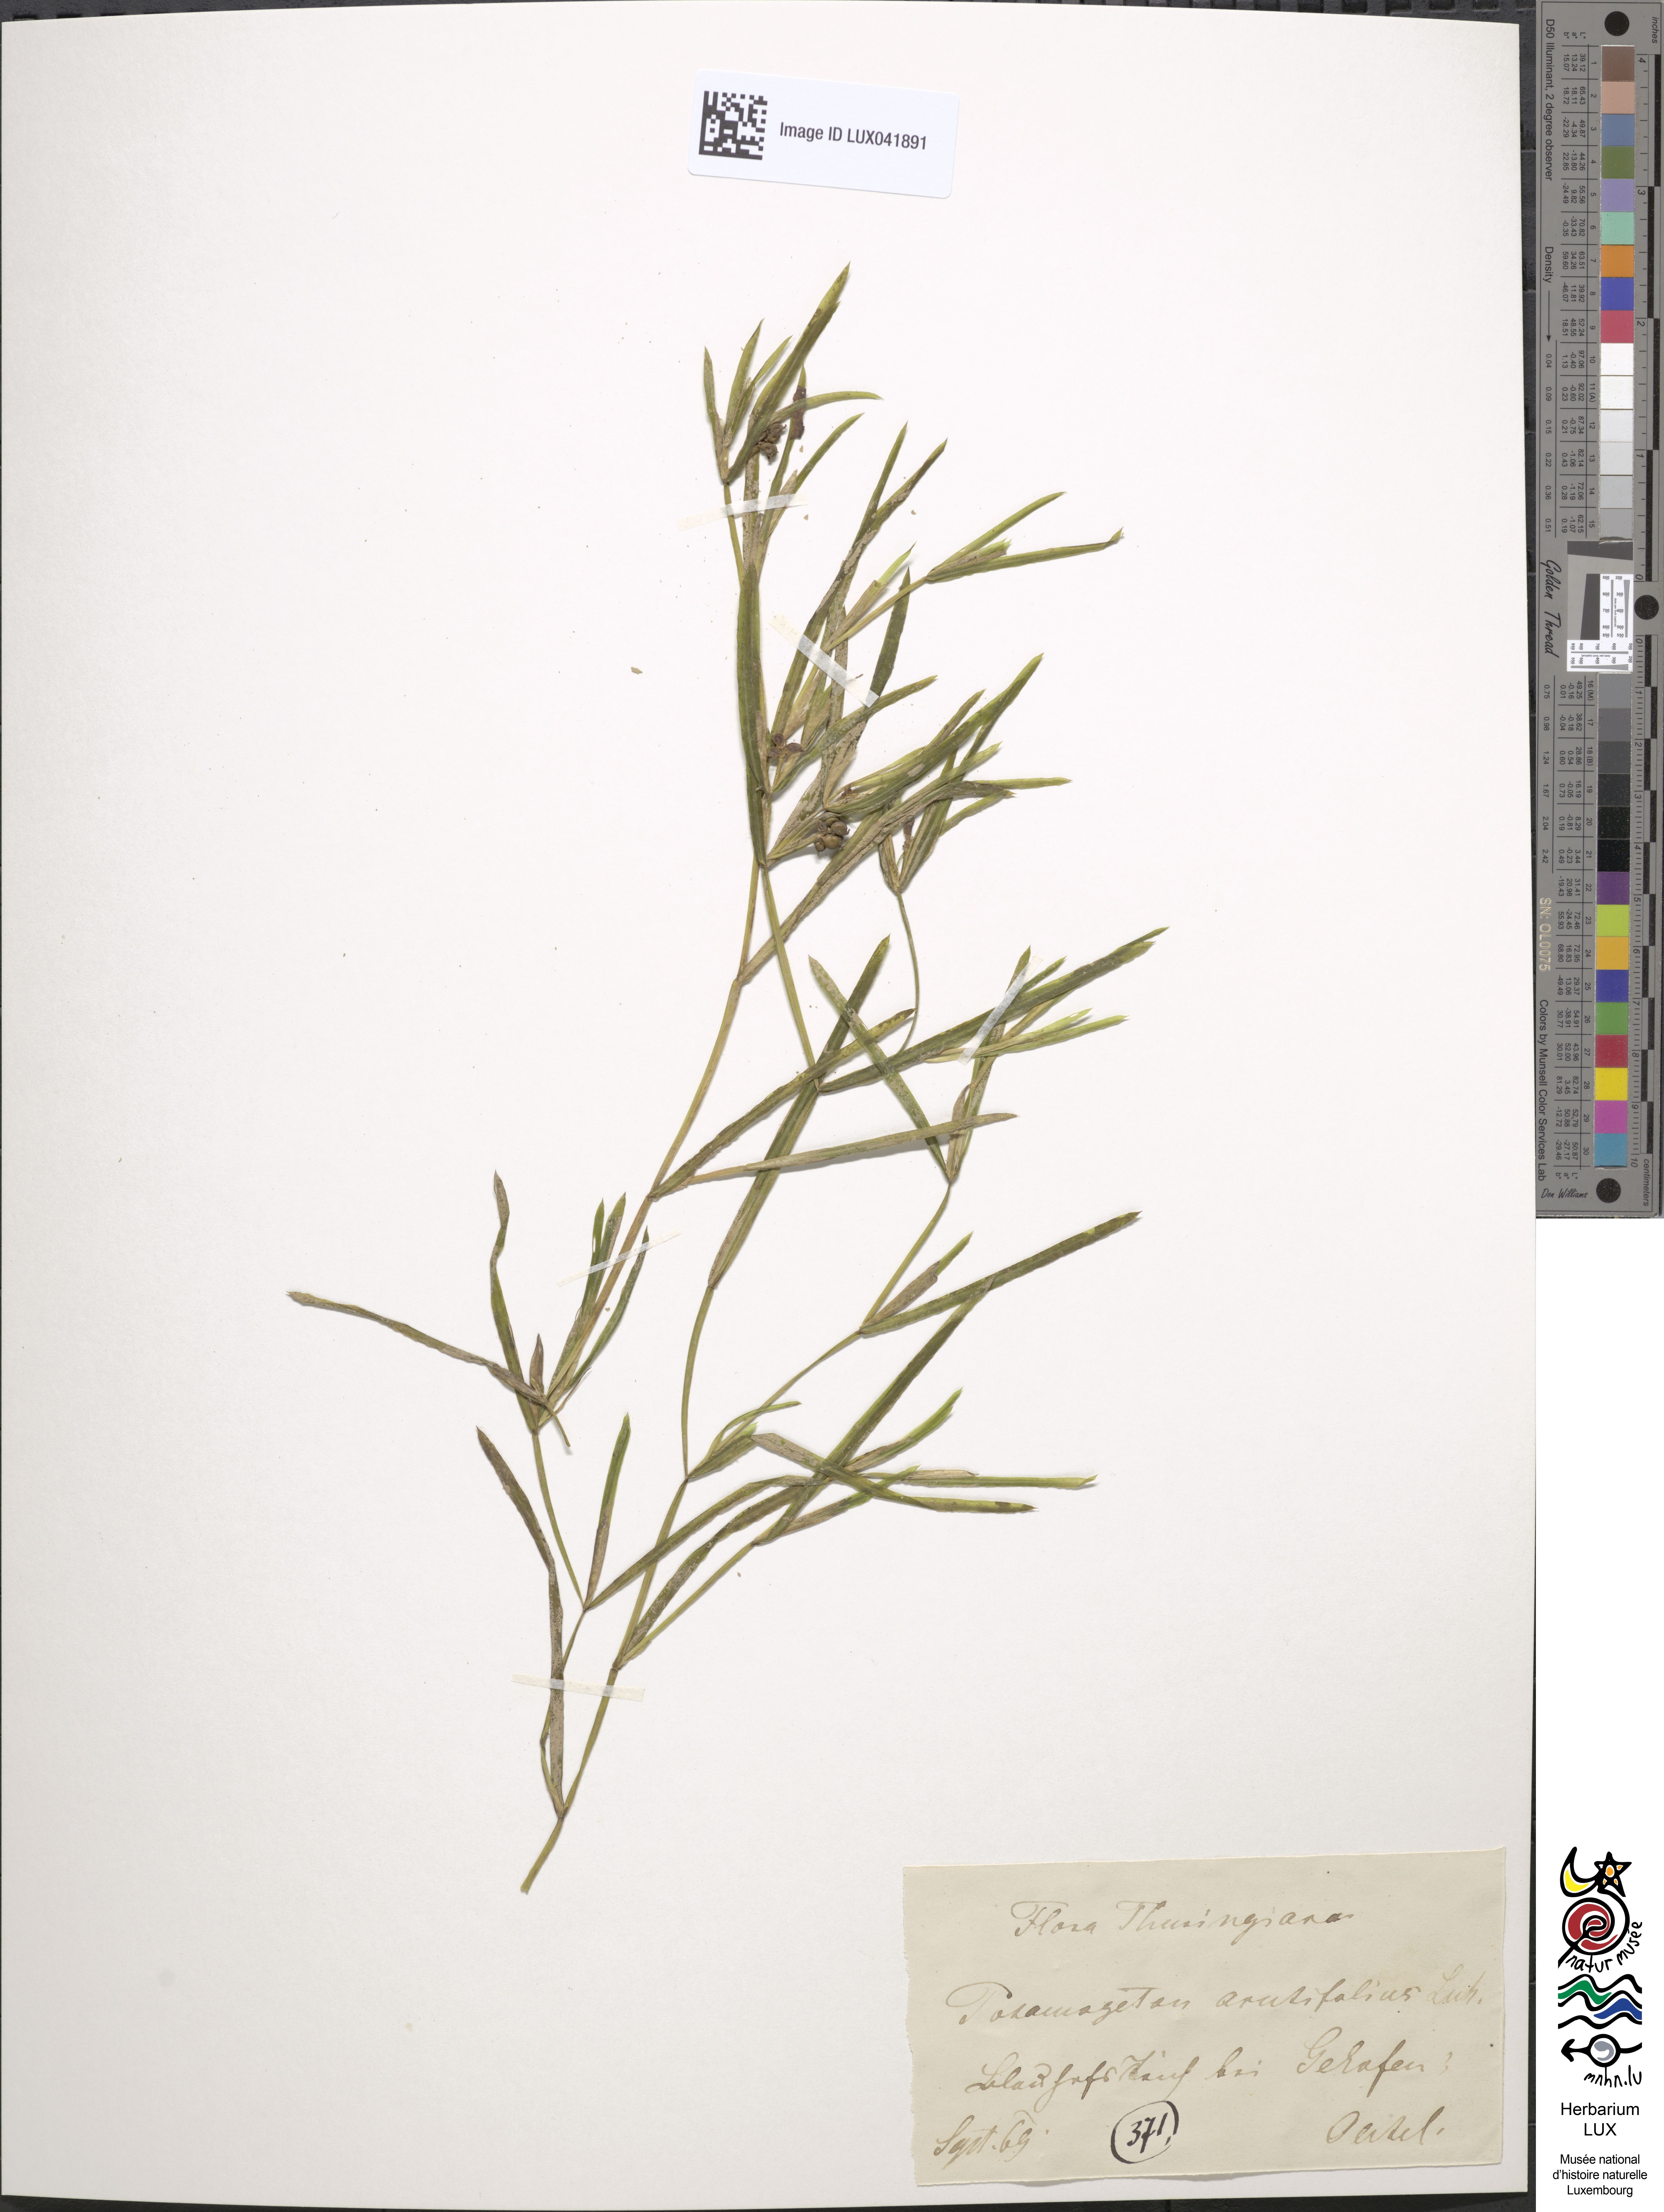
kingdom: Plantae
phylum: Tracheophyta
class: Liliopsida
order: Alismatales
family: Potamogetonaceae
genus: Potamogeton
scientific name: Potamogeton acutifolius
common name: Sharp-leaved pondweed
